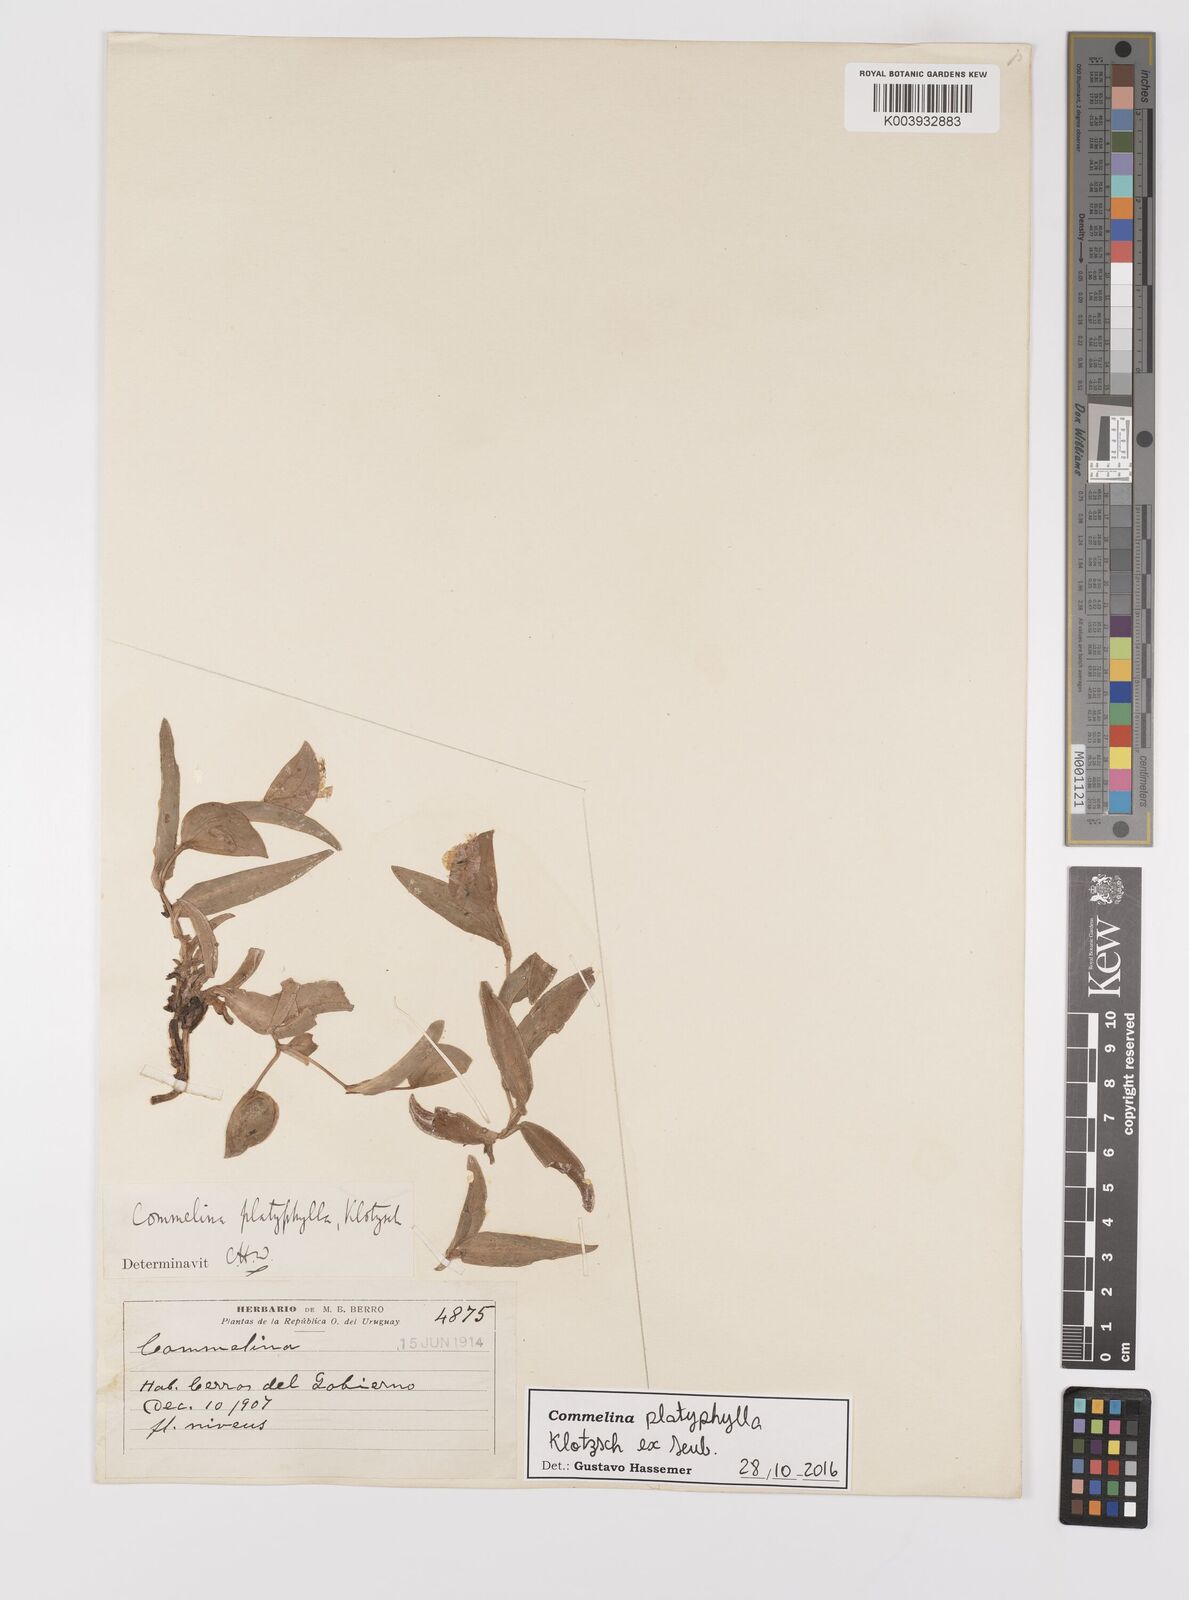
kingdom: Plantae
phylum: Tracheophyta
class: Liliopsida
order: Commelinales
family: Commelinaceae
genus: Commelina
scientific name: Commelina platyphylla
